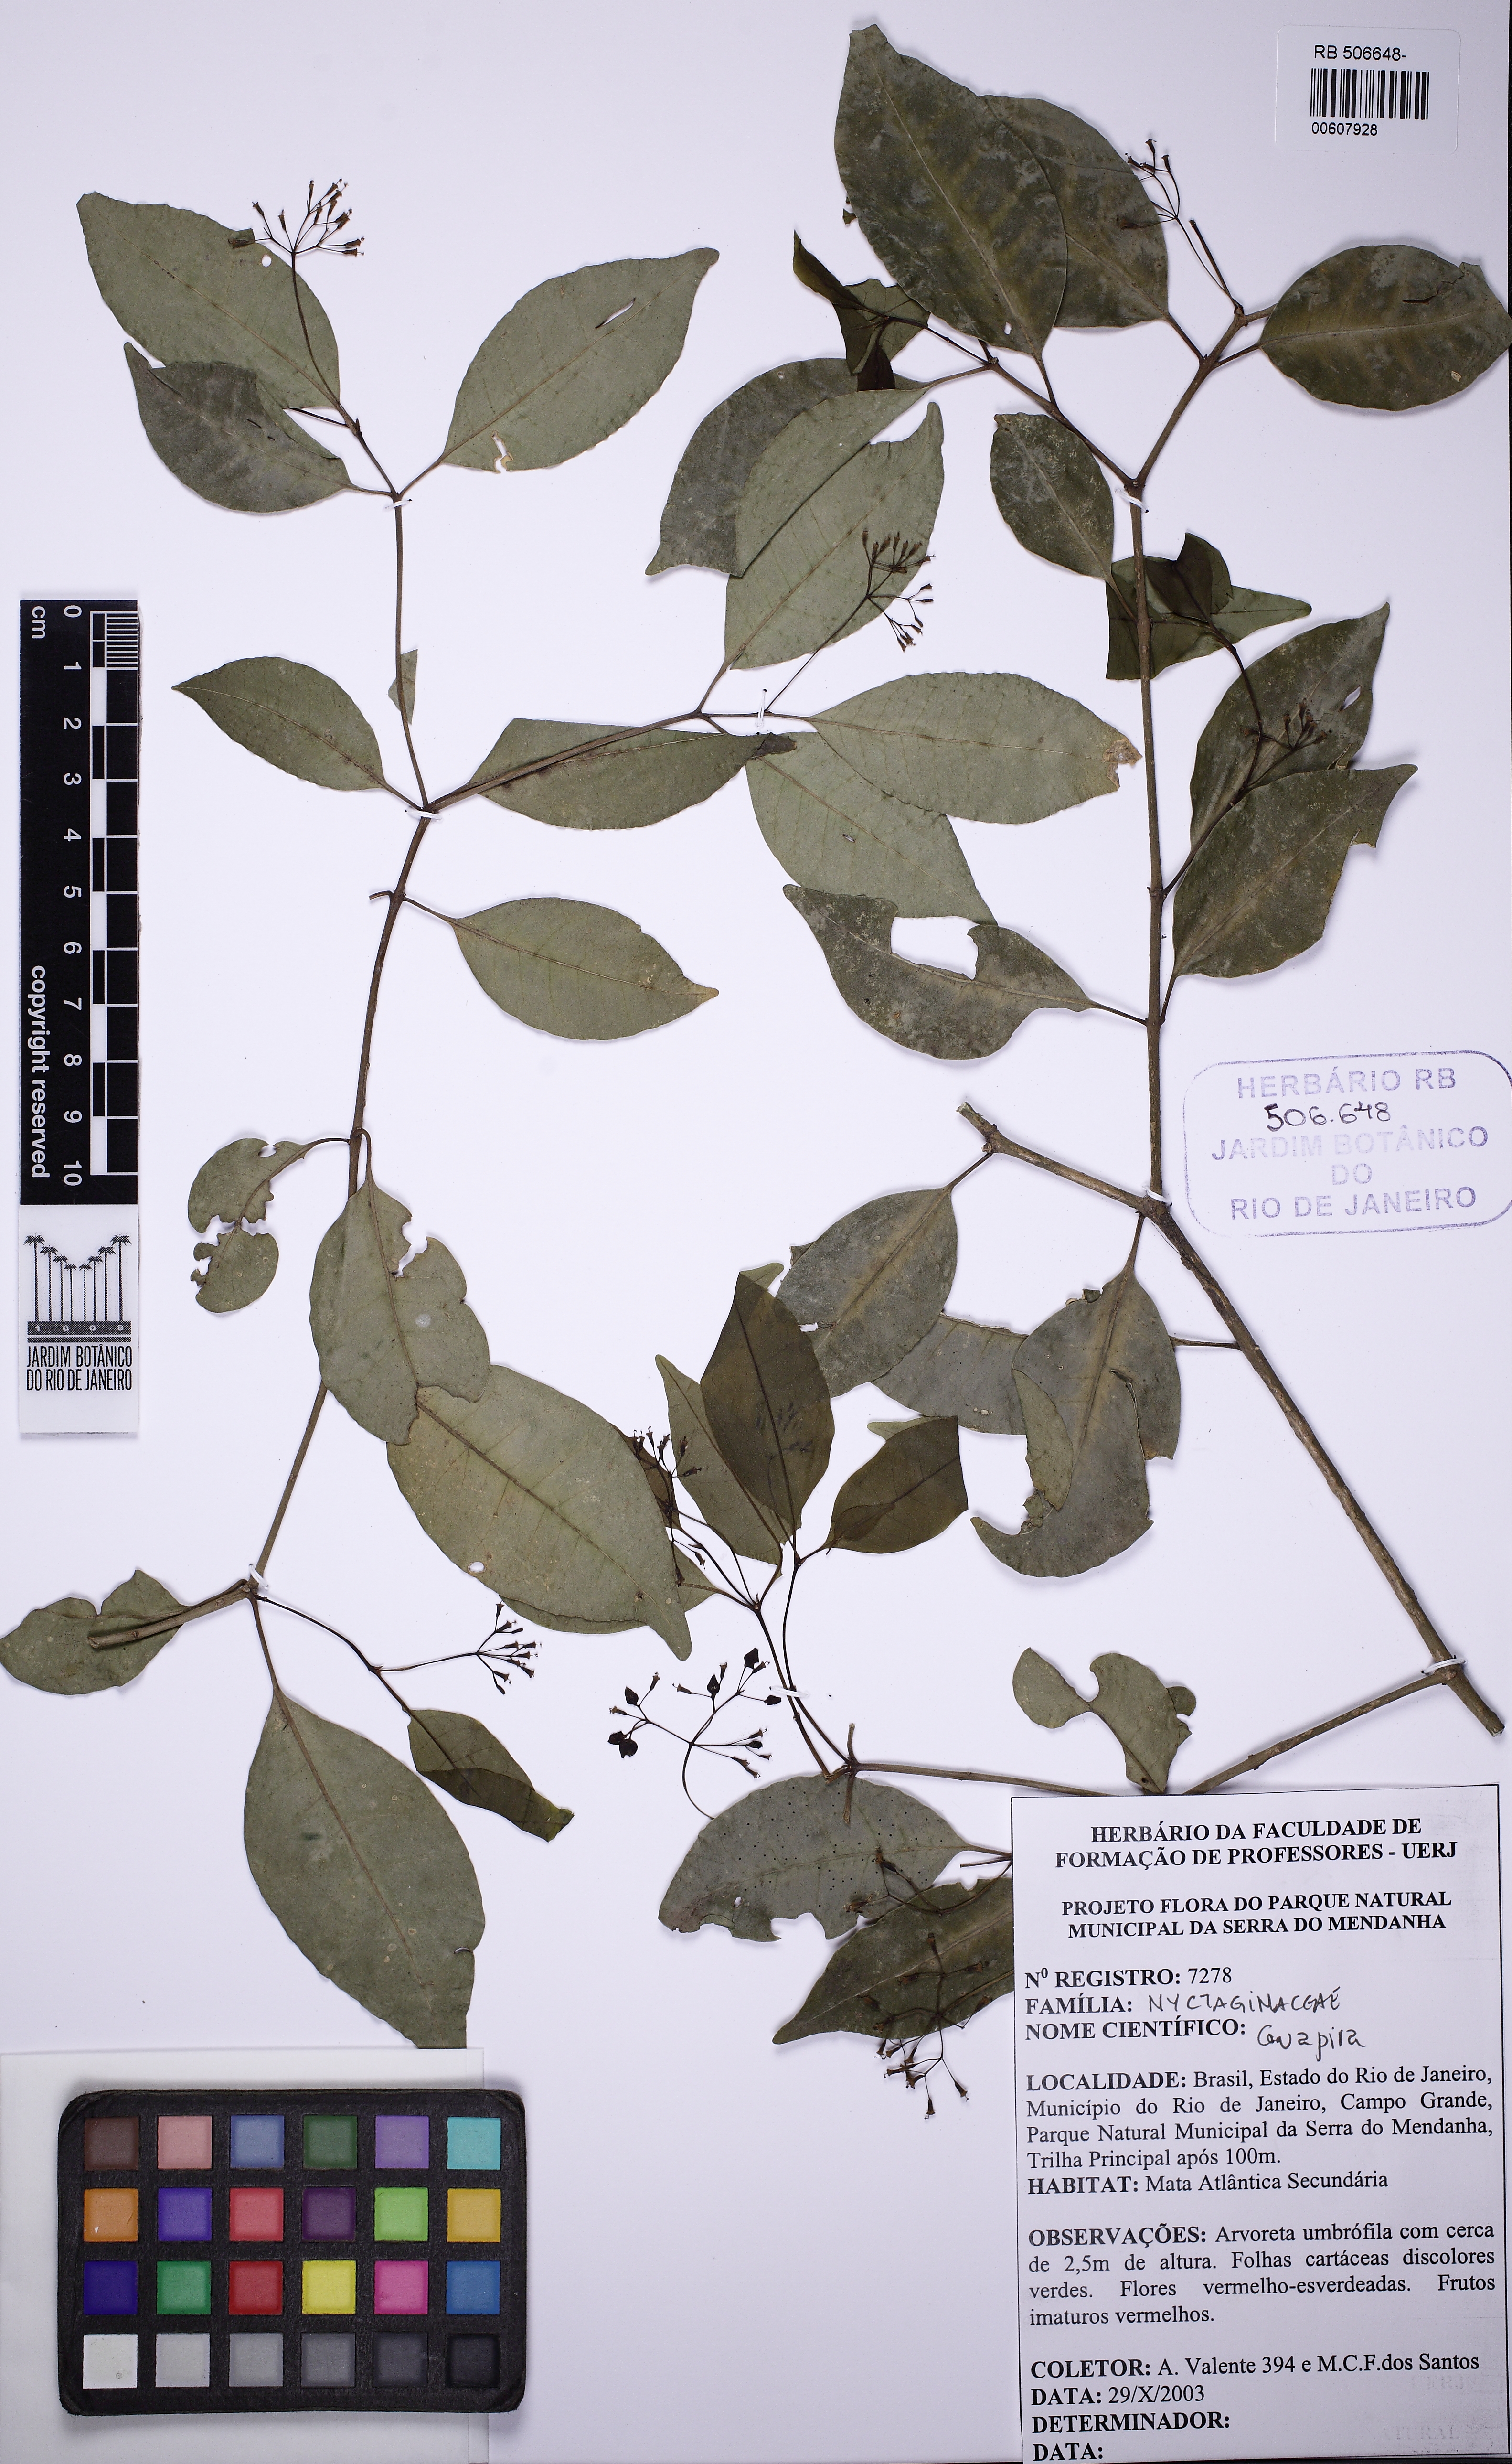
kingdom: Plantae
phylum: Tracheophyta
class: Magnoliopsida
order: Caryophyllales
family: Nyctaginaceae
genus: Guapira
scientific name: Guapira opposita
